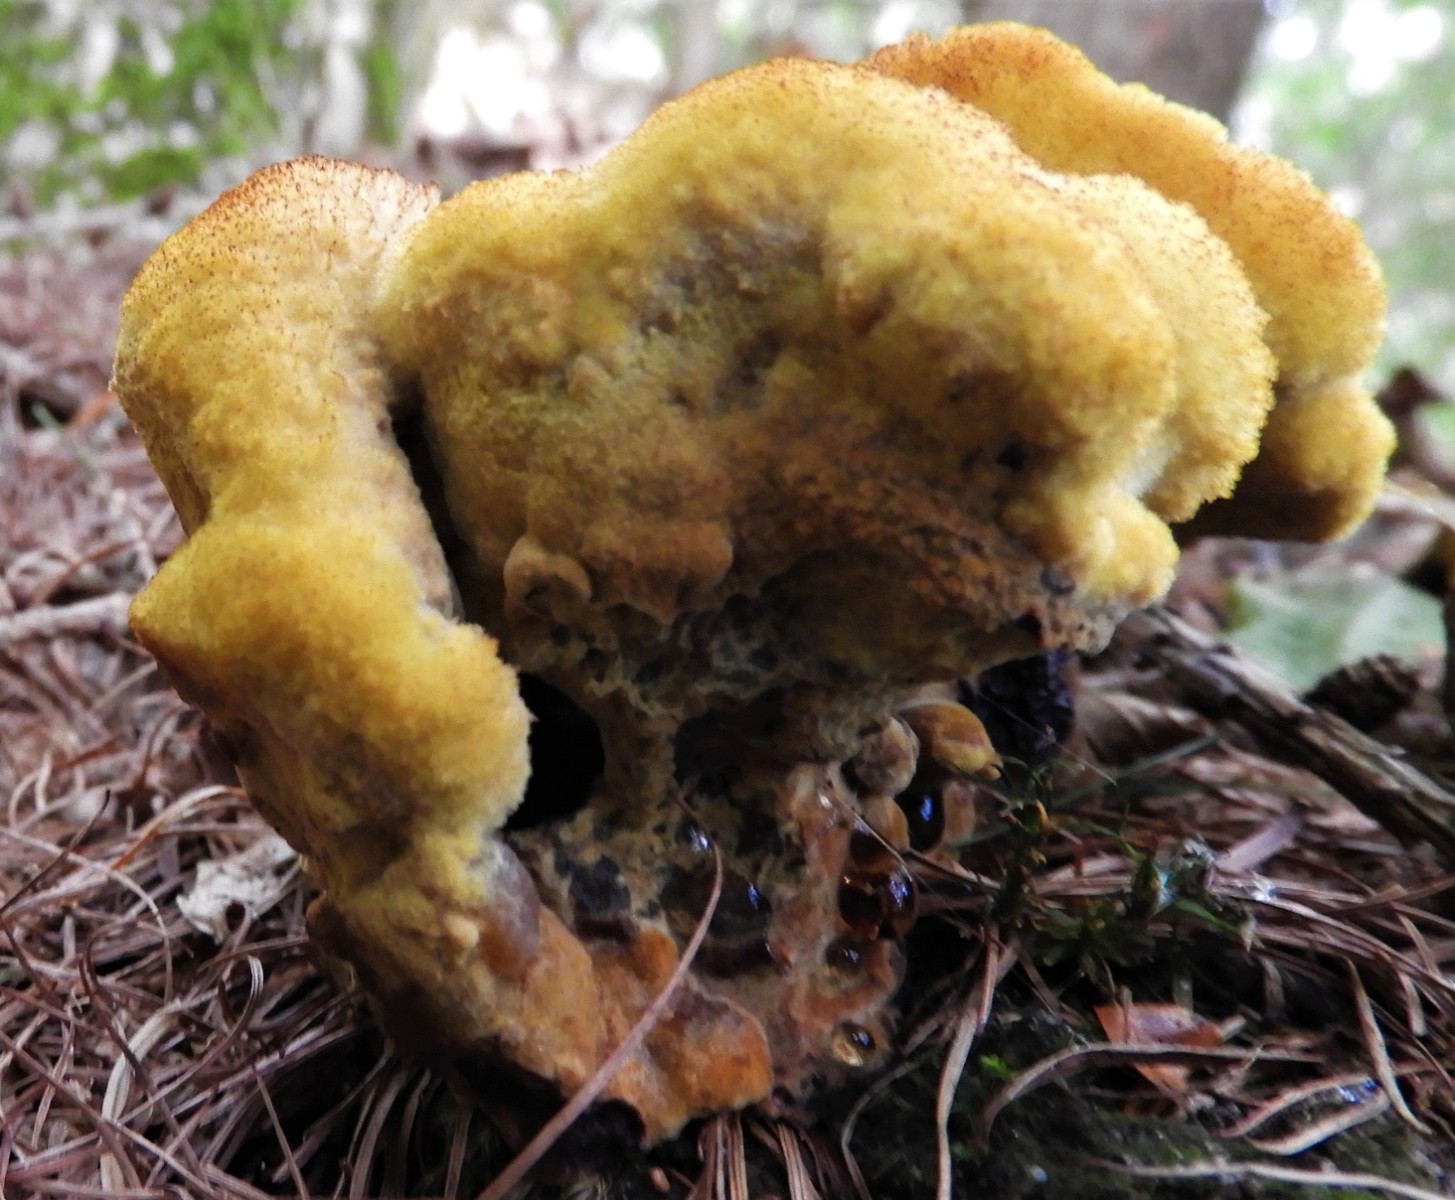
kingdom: Fungi
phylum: Basidiomycota
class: Agaricomycetes
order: Polyporales
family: Laetiporaceae
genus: Phaeolus
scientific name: Phaeolus schweinitzii
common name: brunporesvamp
